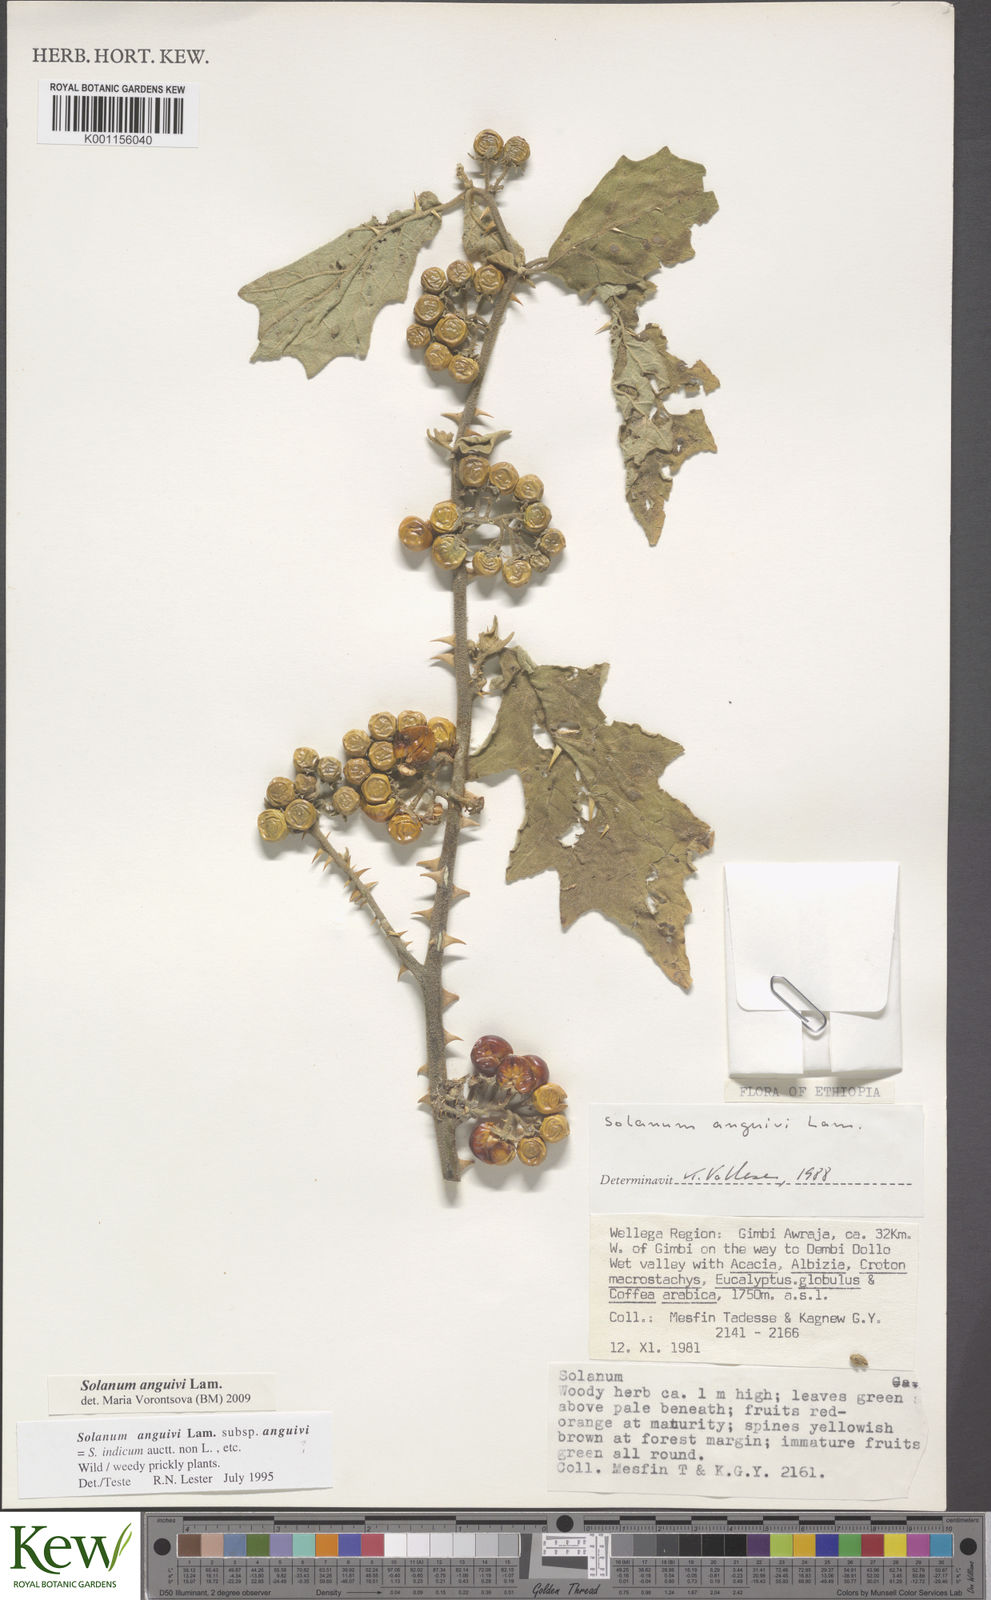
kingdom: Plantae
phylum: Tracheophyta
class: Magnoliopsida
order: Solanales
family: Solanaceae
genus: Solanum
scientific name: Solanum anguivi
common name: Forest bitterberry
